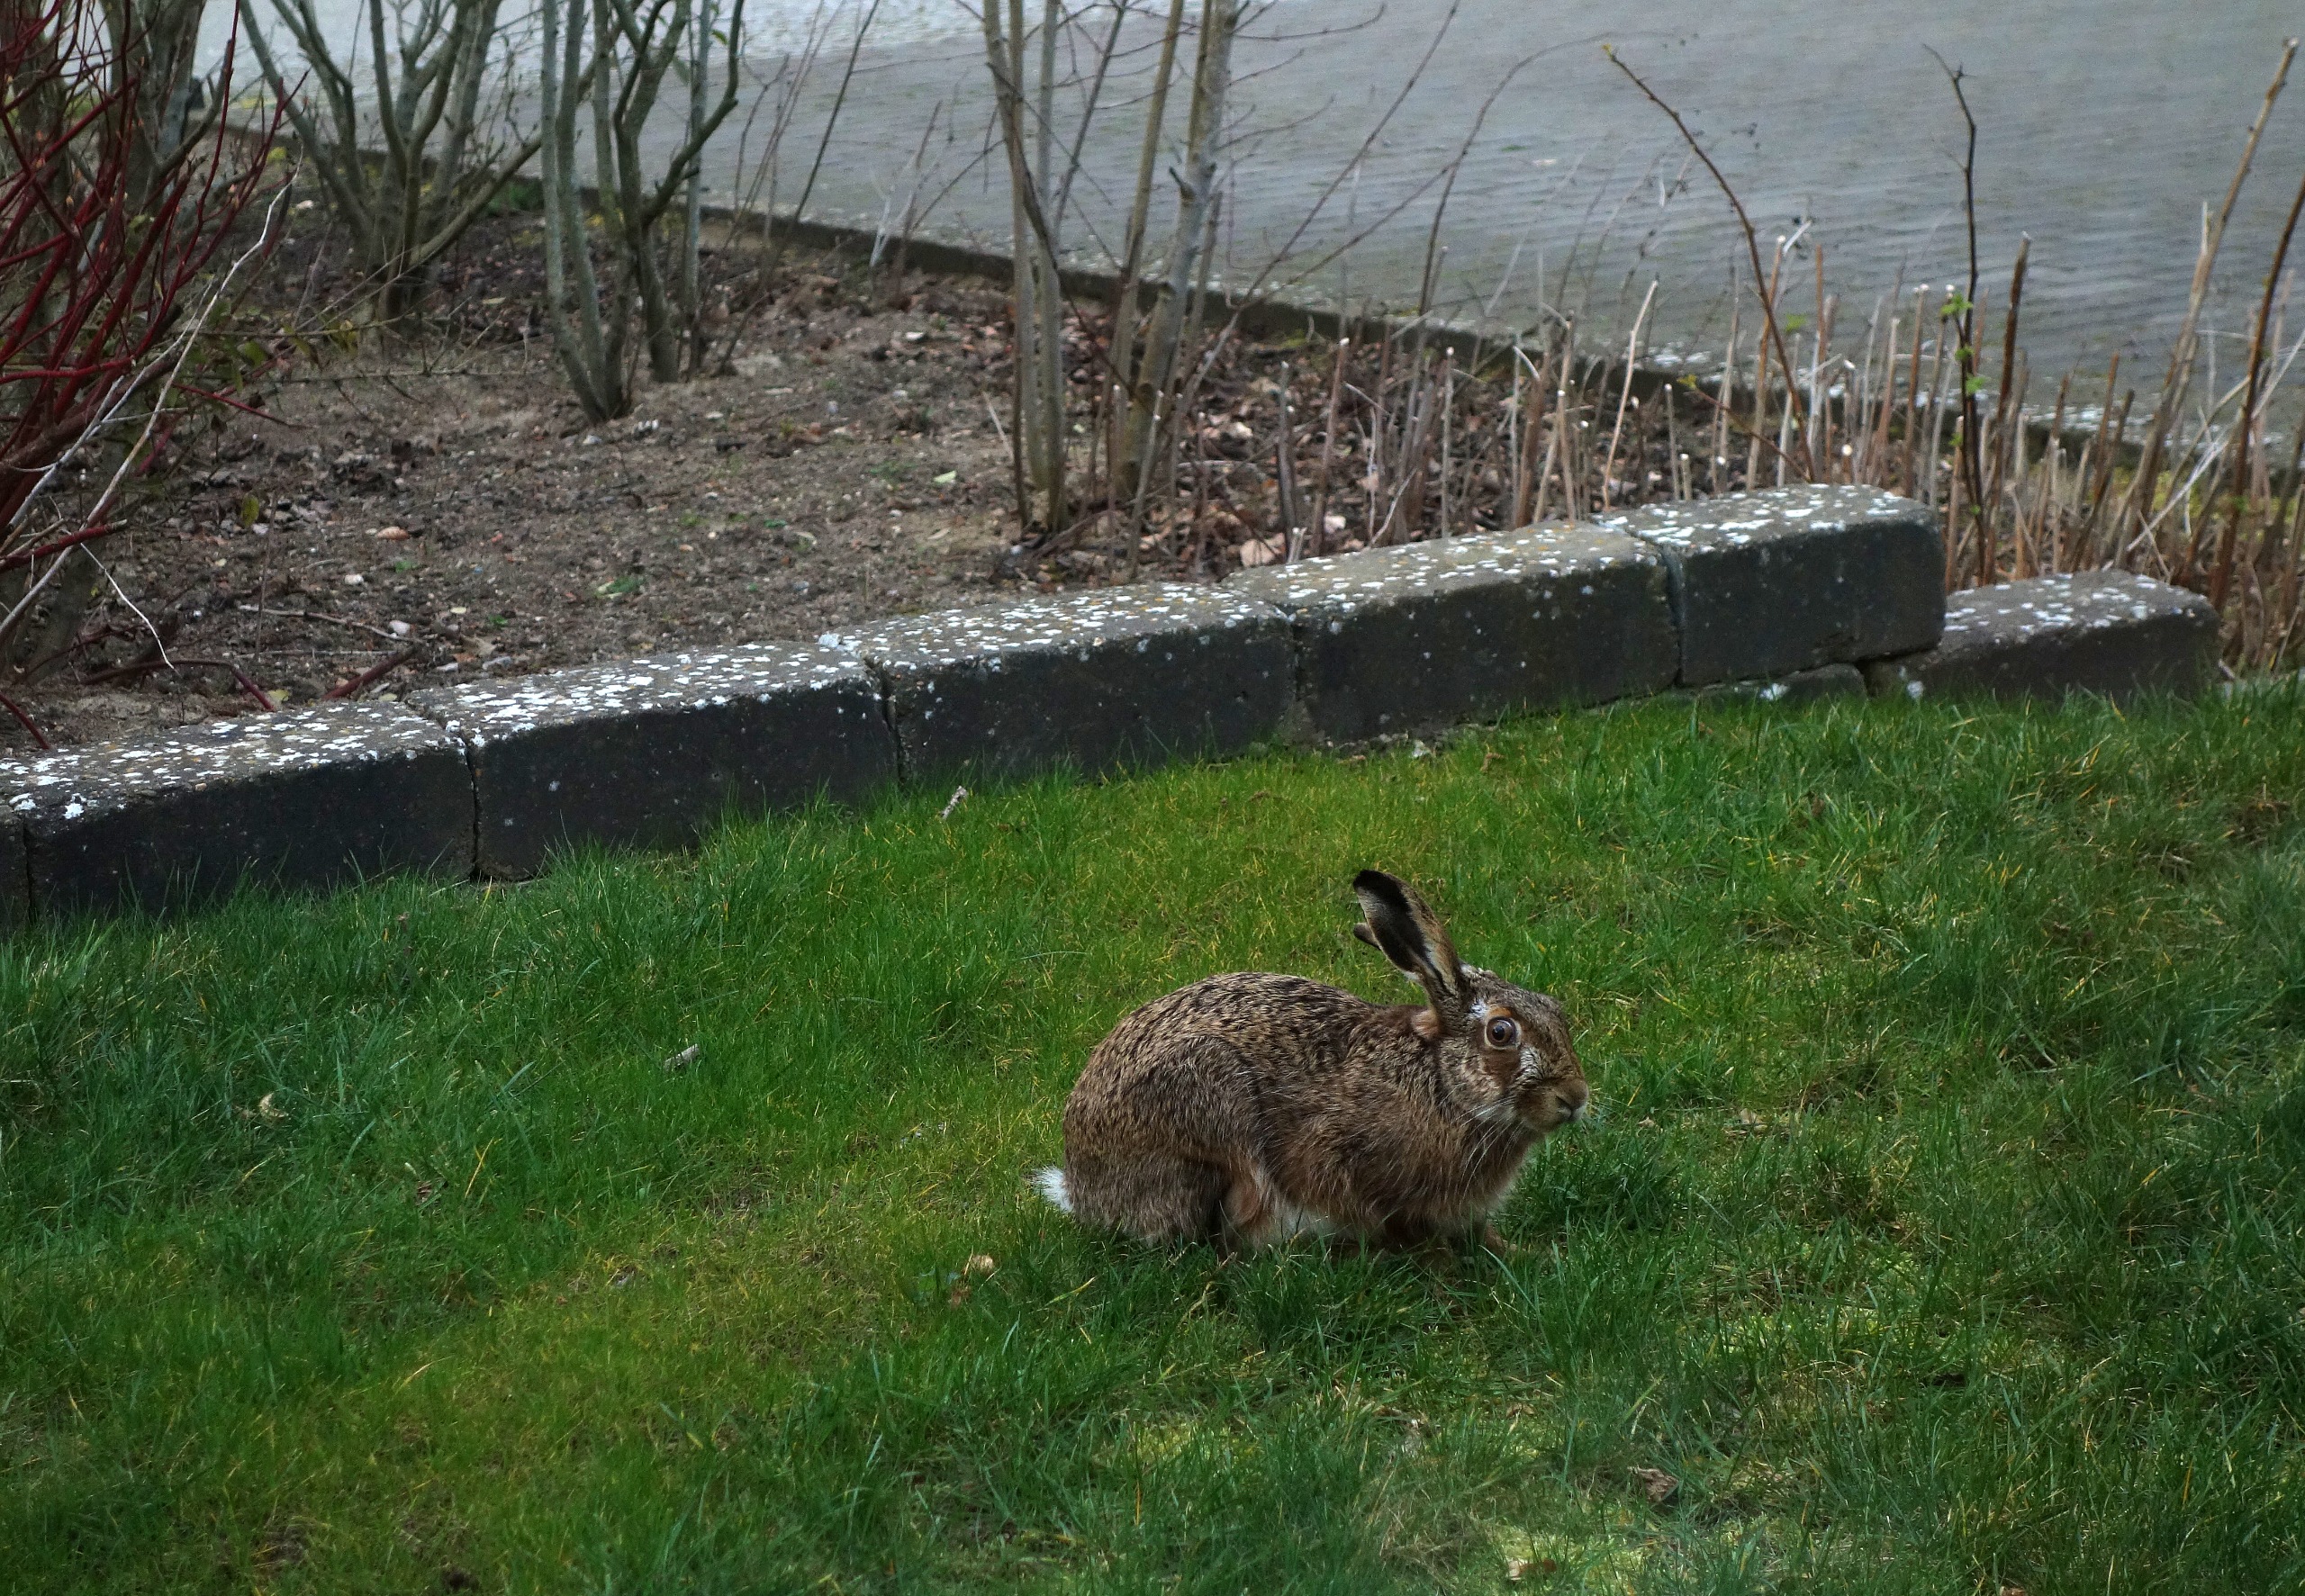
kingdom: Animalia
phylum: Chordata
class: Mammalia
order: Lagomorpha
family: Leporidae
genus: Lepus
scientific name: Lepus europaeus
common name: Hare
